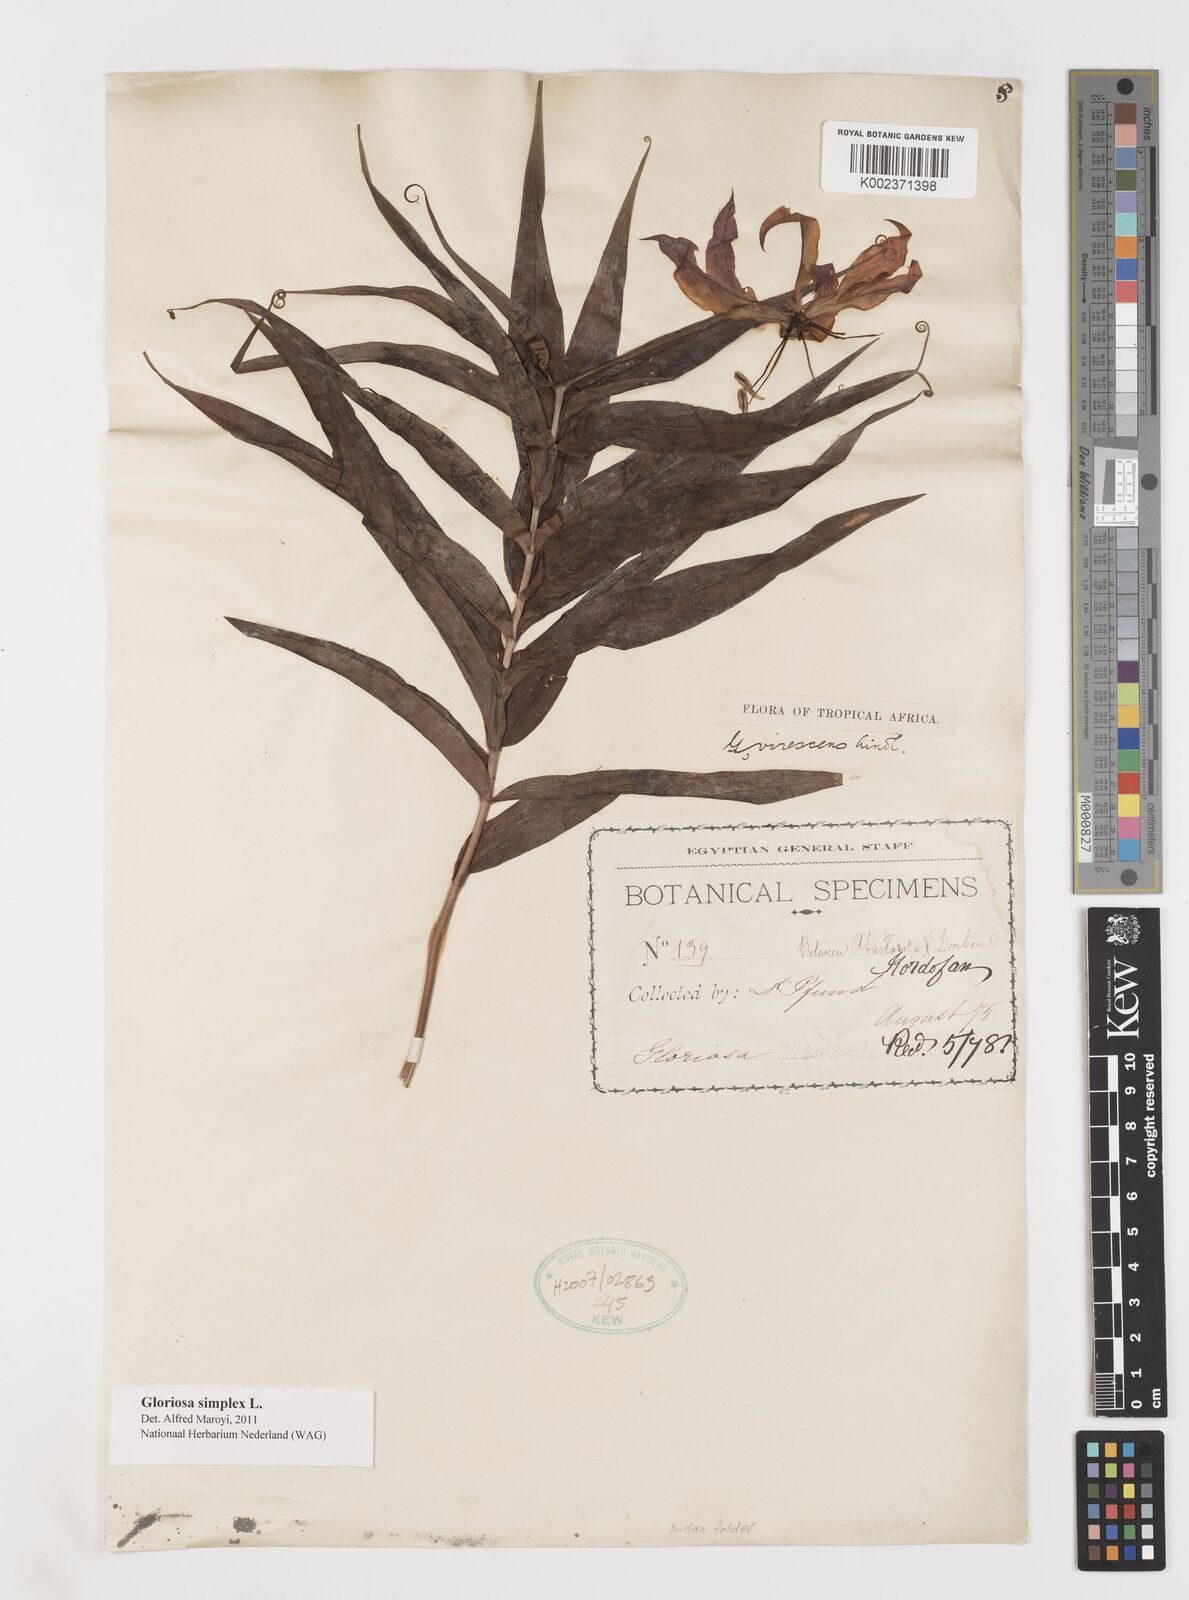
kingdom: Plantae
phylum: Tracheophyta
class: Liliopsida
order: Liliales
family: Colchicaceae
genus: Gloriosa
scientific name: Gloriosa simplex
